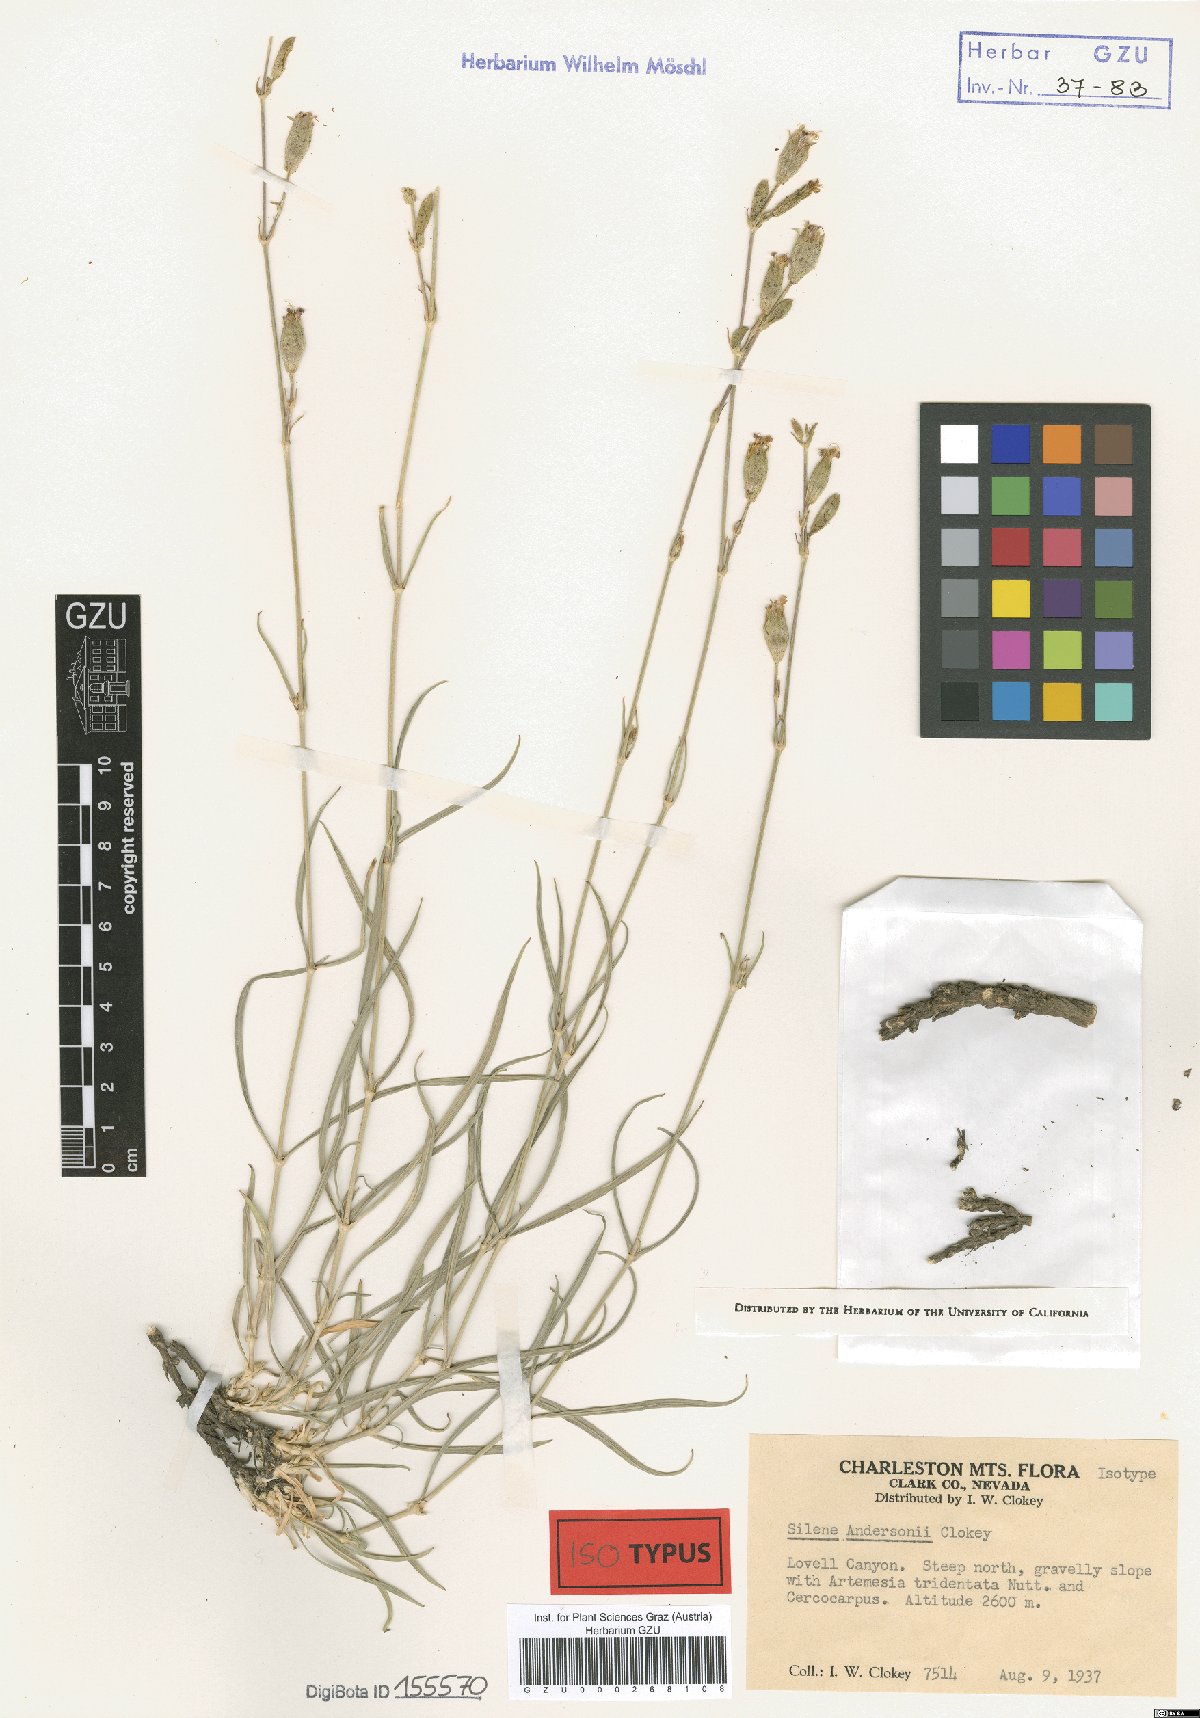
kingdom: Plantae
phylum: Tracheophyta
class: Magnoliopsida
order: Caryophyllales
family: Caryophyllaceae
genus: Silene
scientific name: Silene verecunda
